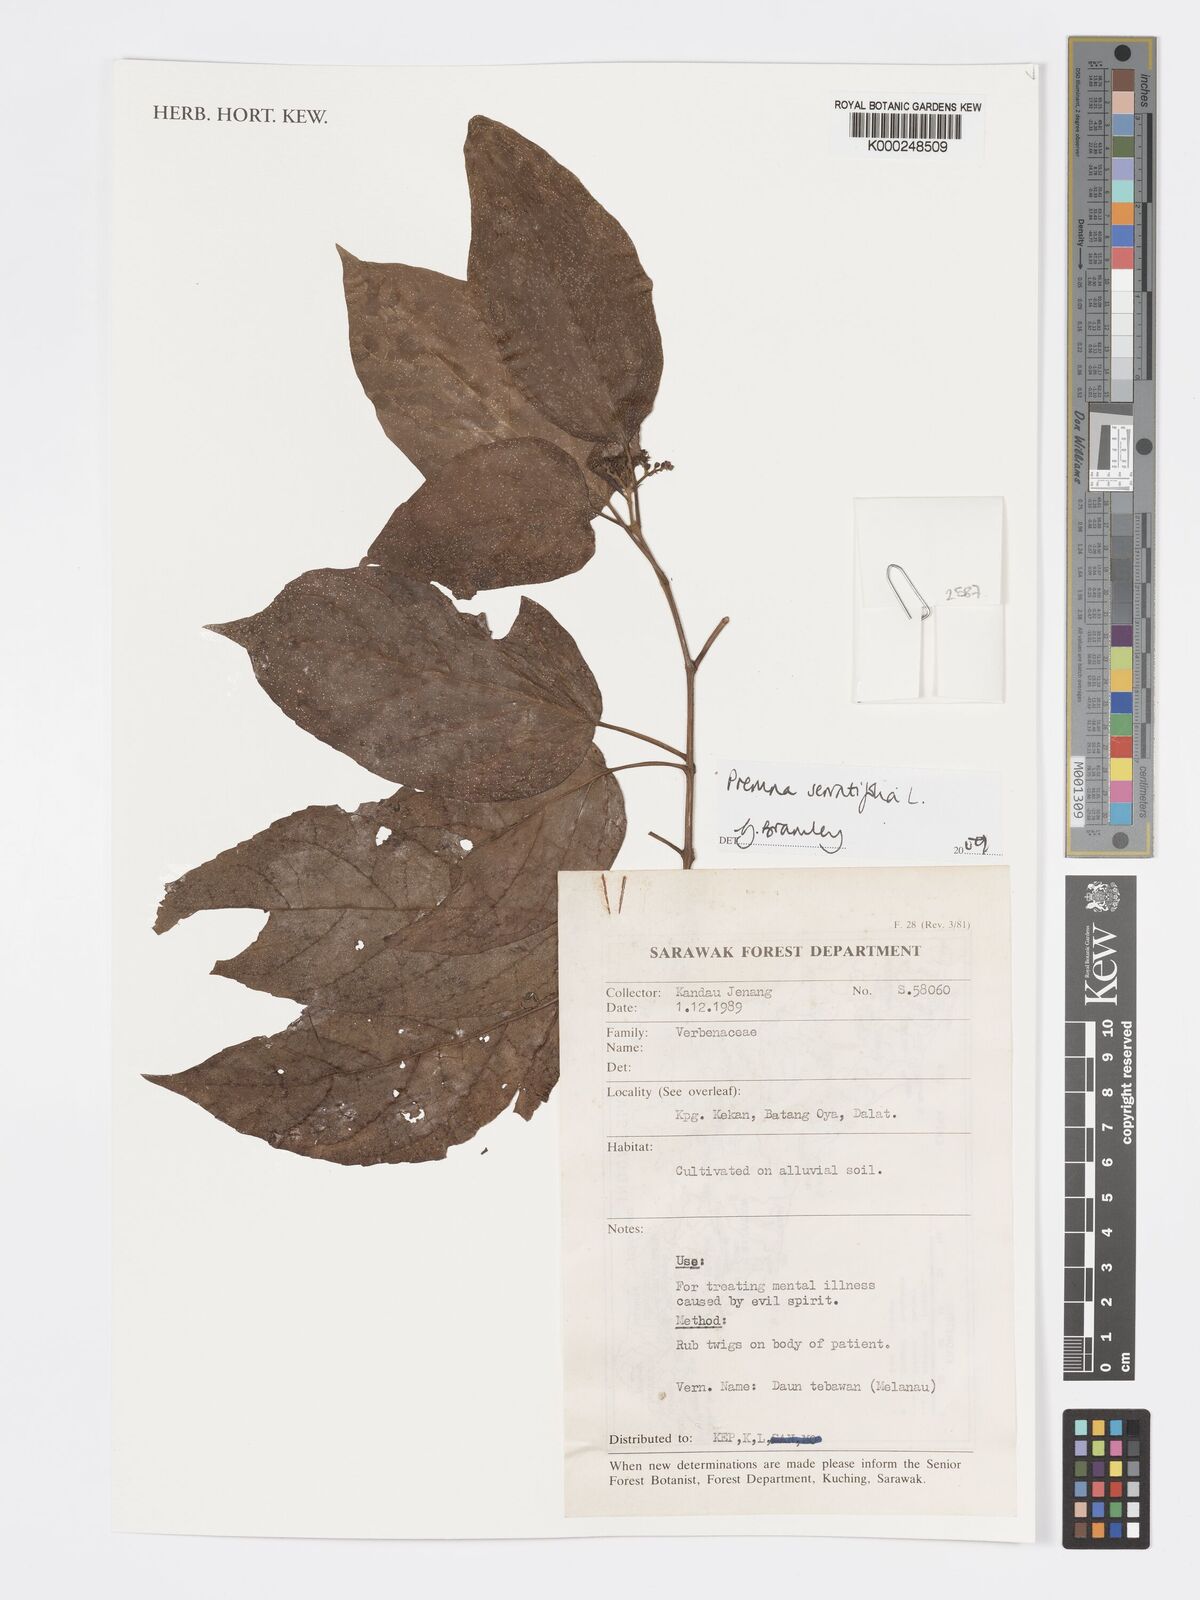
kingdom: Plantae
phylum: Tracheophyta
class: Magnoliopsida
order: Lamiales
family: Lamiaceae
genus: Premna
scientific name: Premna serratifolia
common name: Bastard guelder
